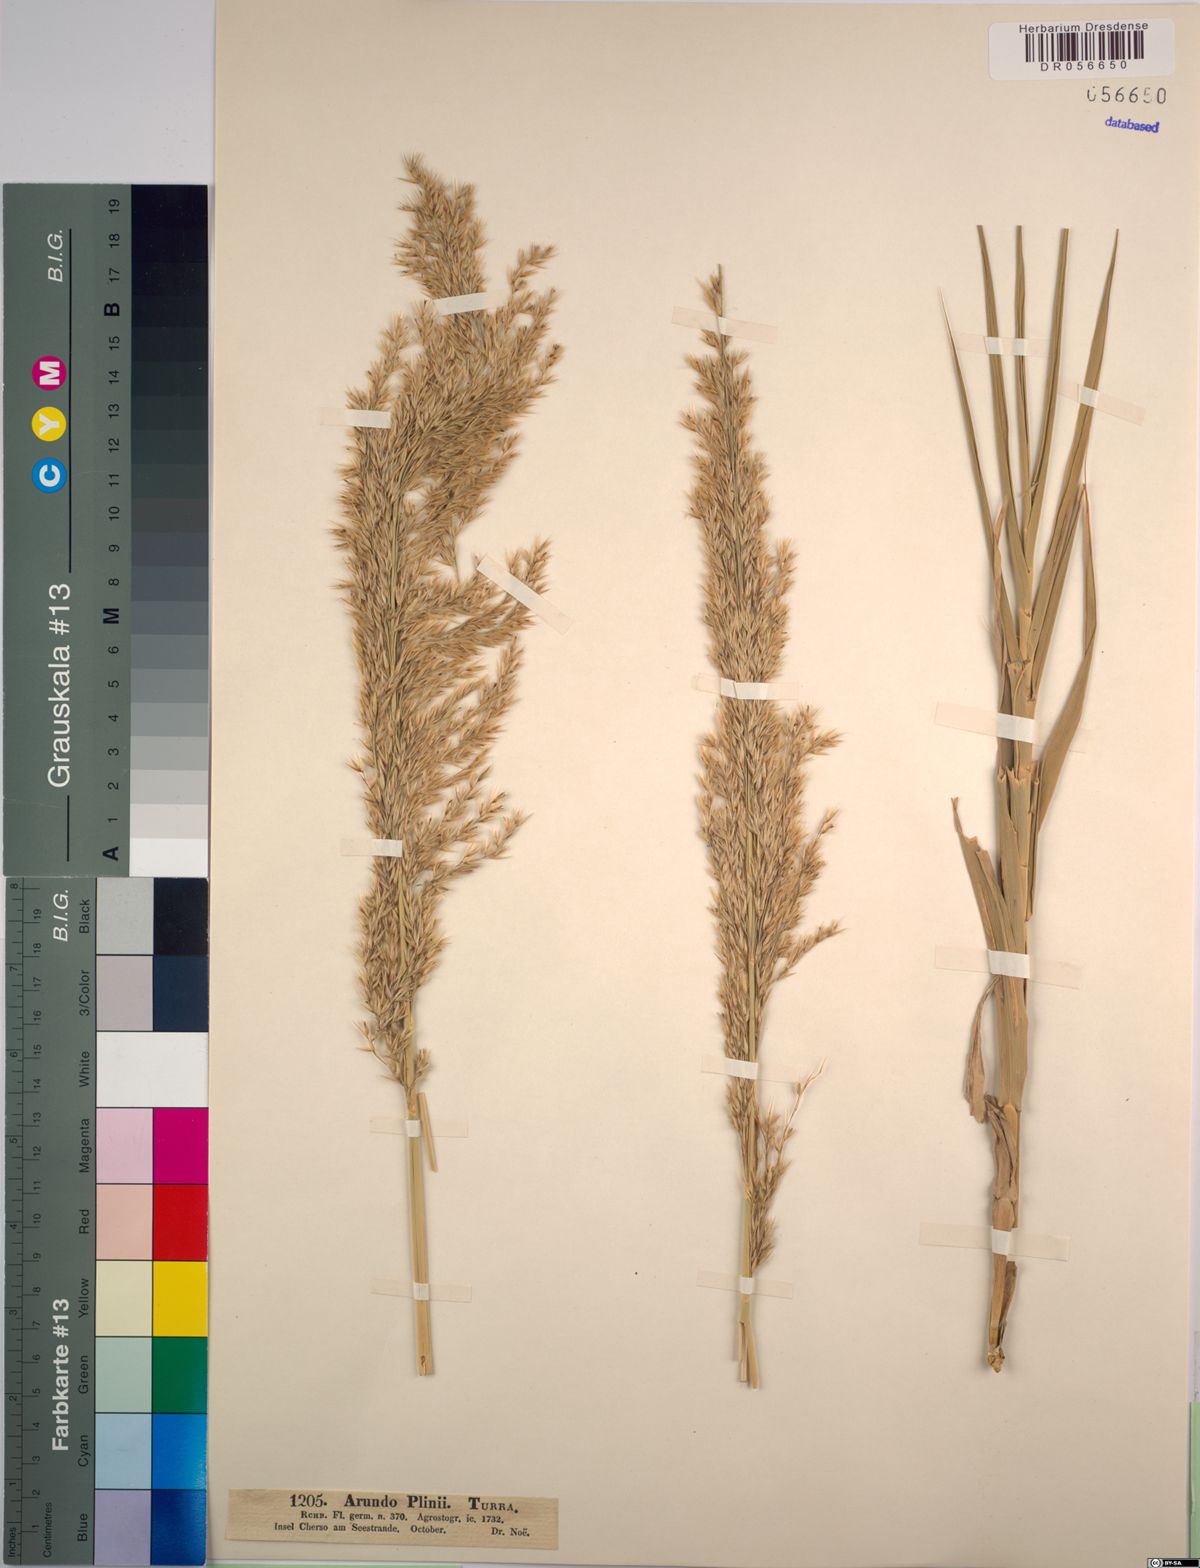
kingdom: Plantae
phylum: Tracheophyta
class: Liliopsida
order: Poales
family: Poaceae
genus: Arundo
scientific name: Arundo plinii
